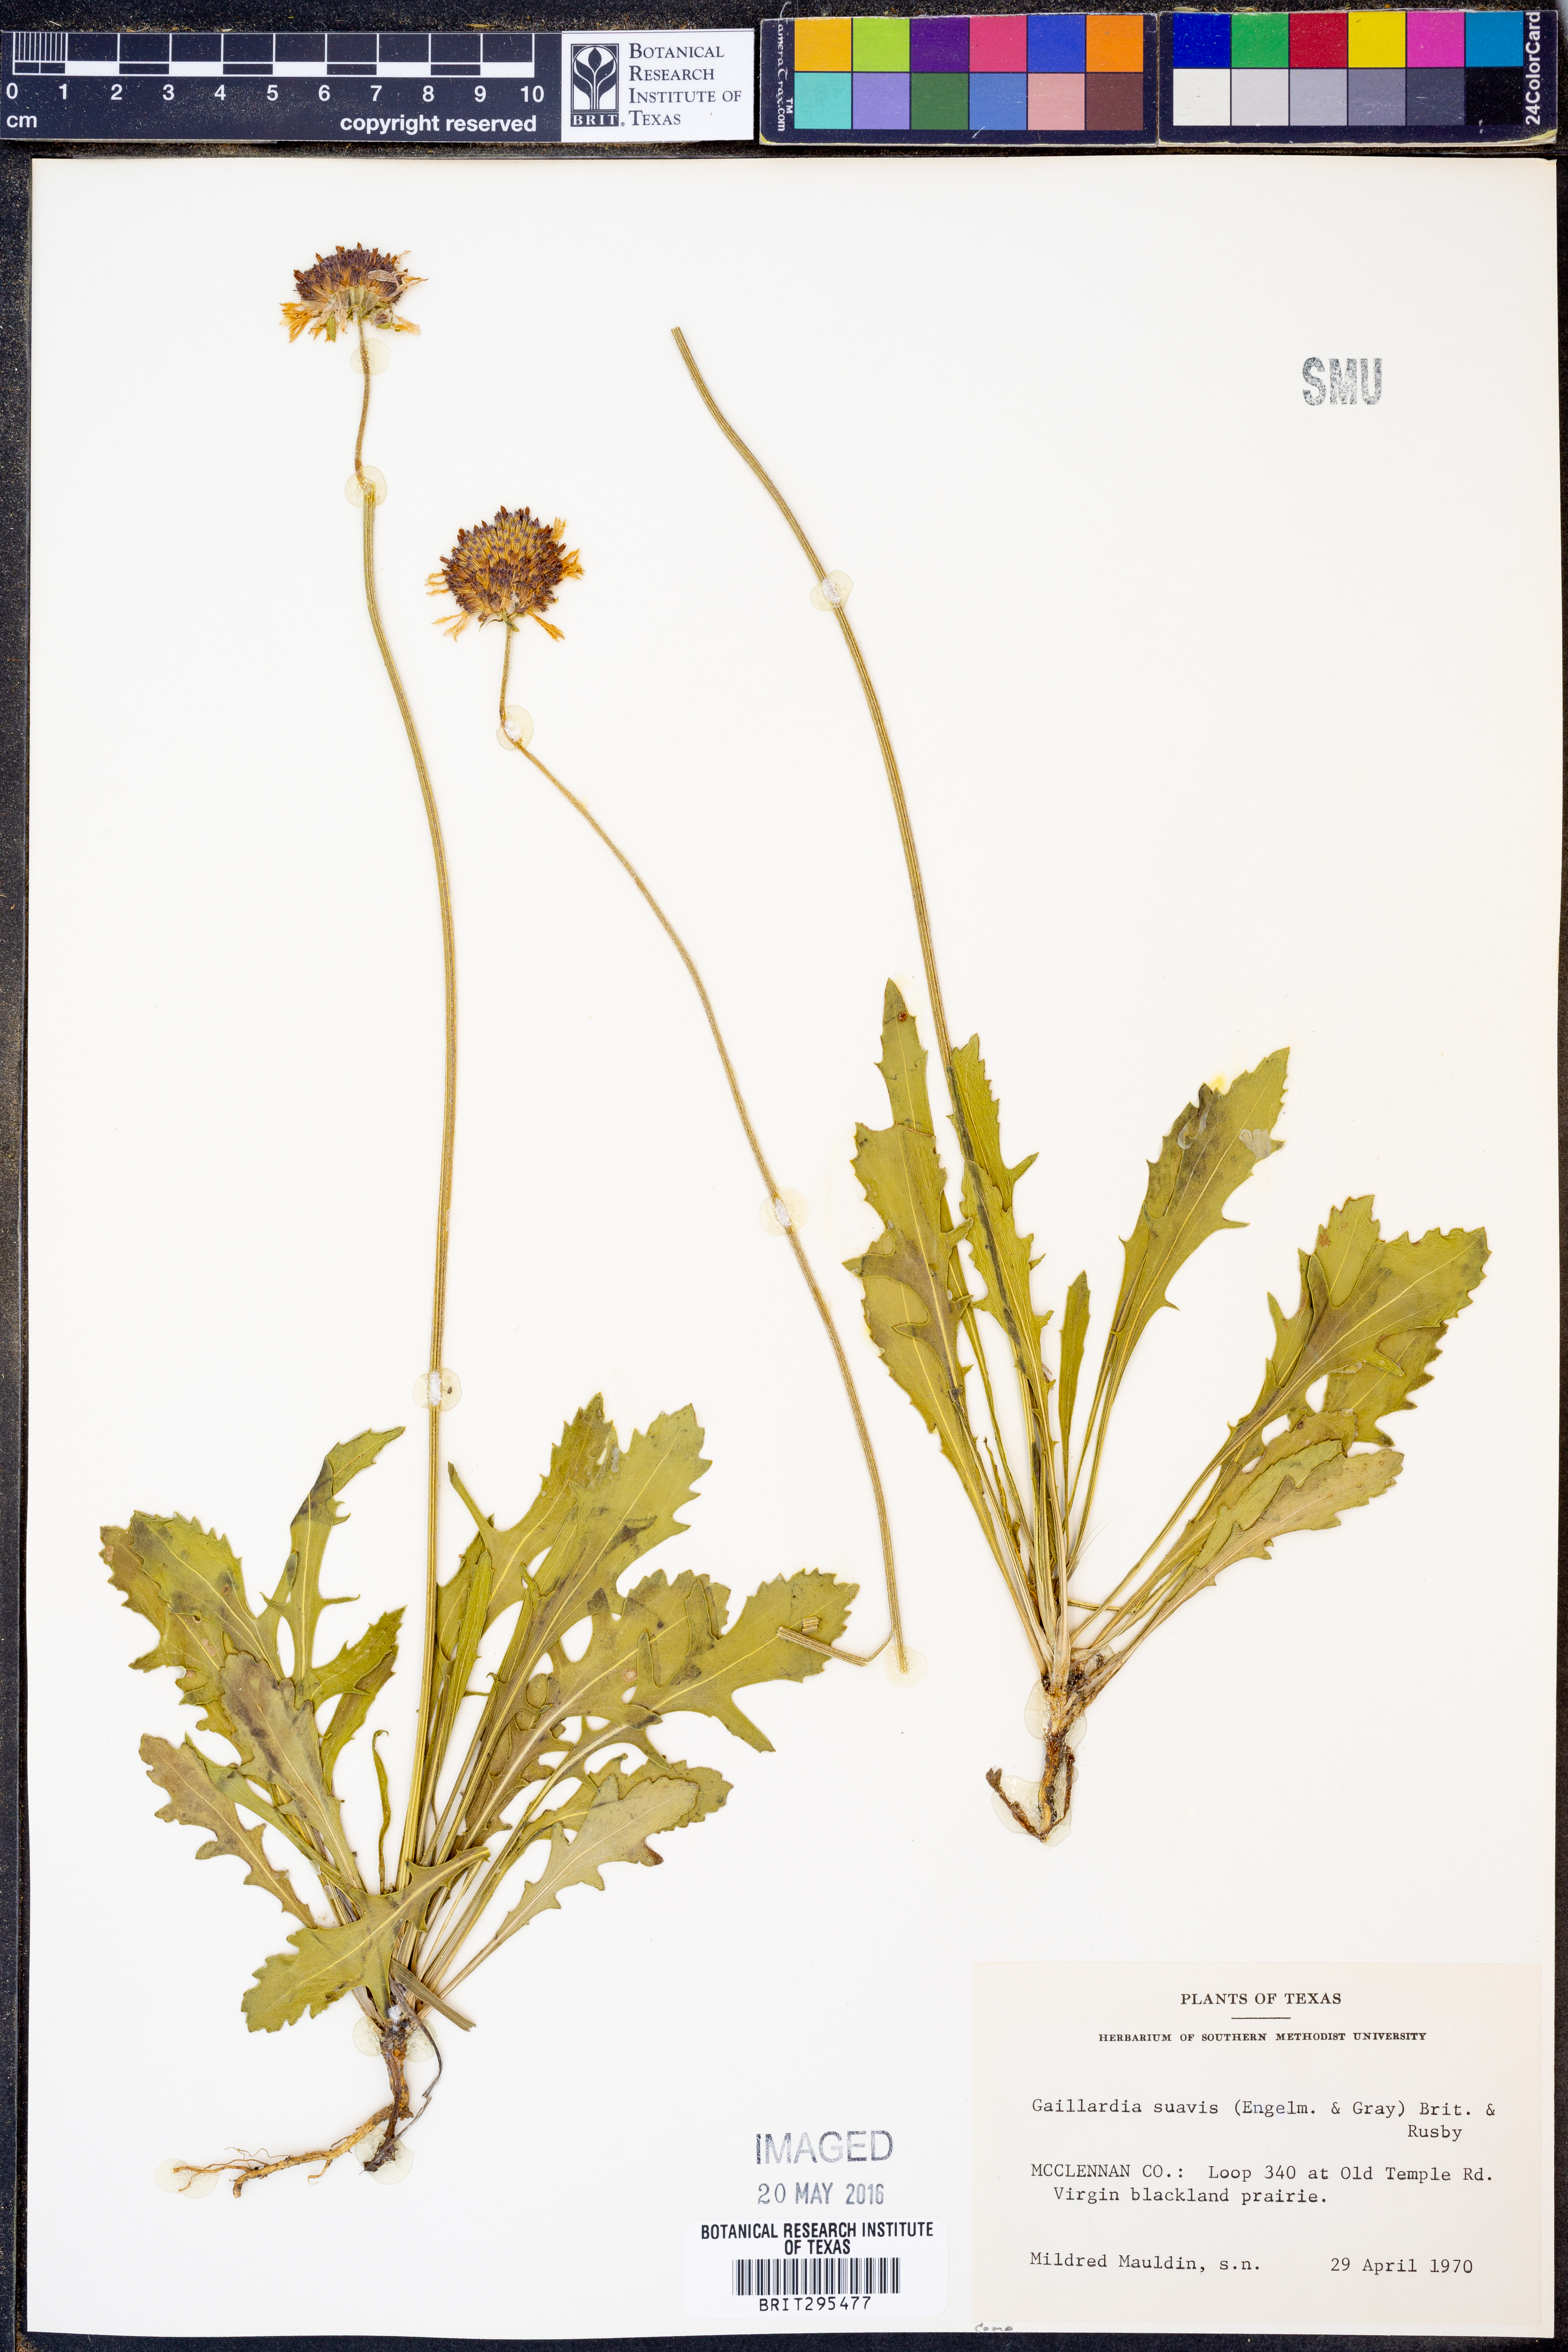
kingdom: Plantae
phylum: Tracheophyta
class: Magnoliopsida
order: Asterales
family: Asteraceae
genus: Gaillardia
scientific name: Gaillardia suavis
